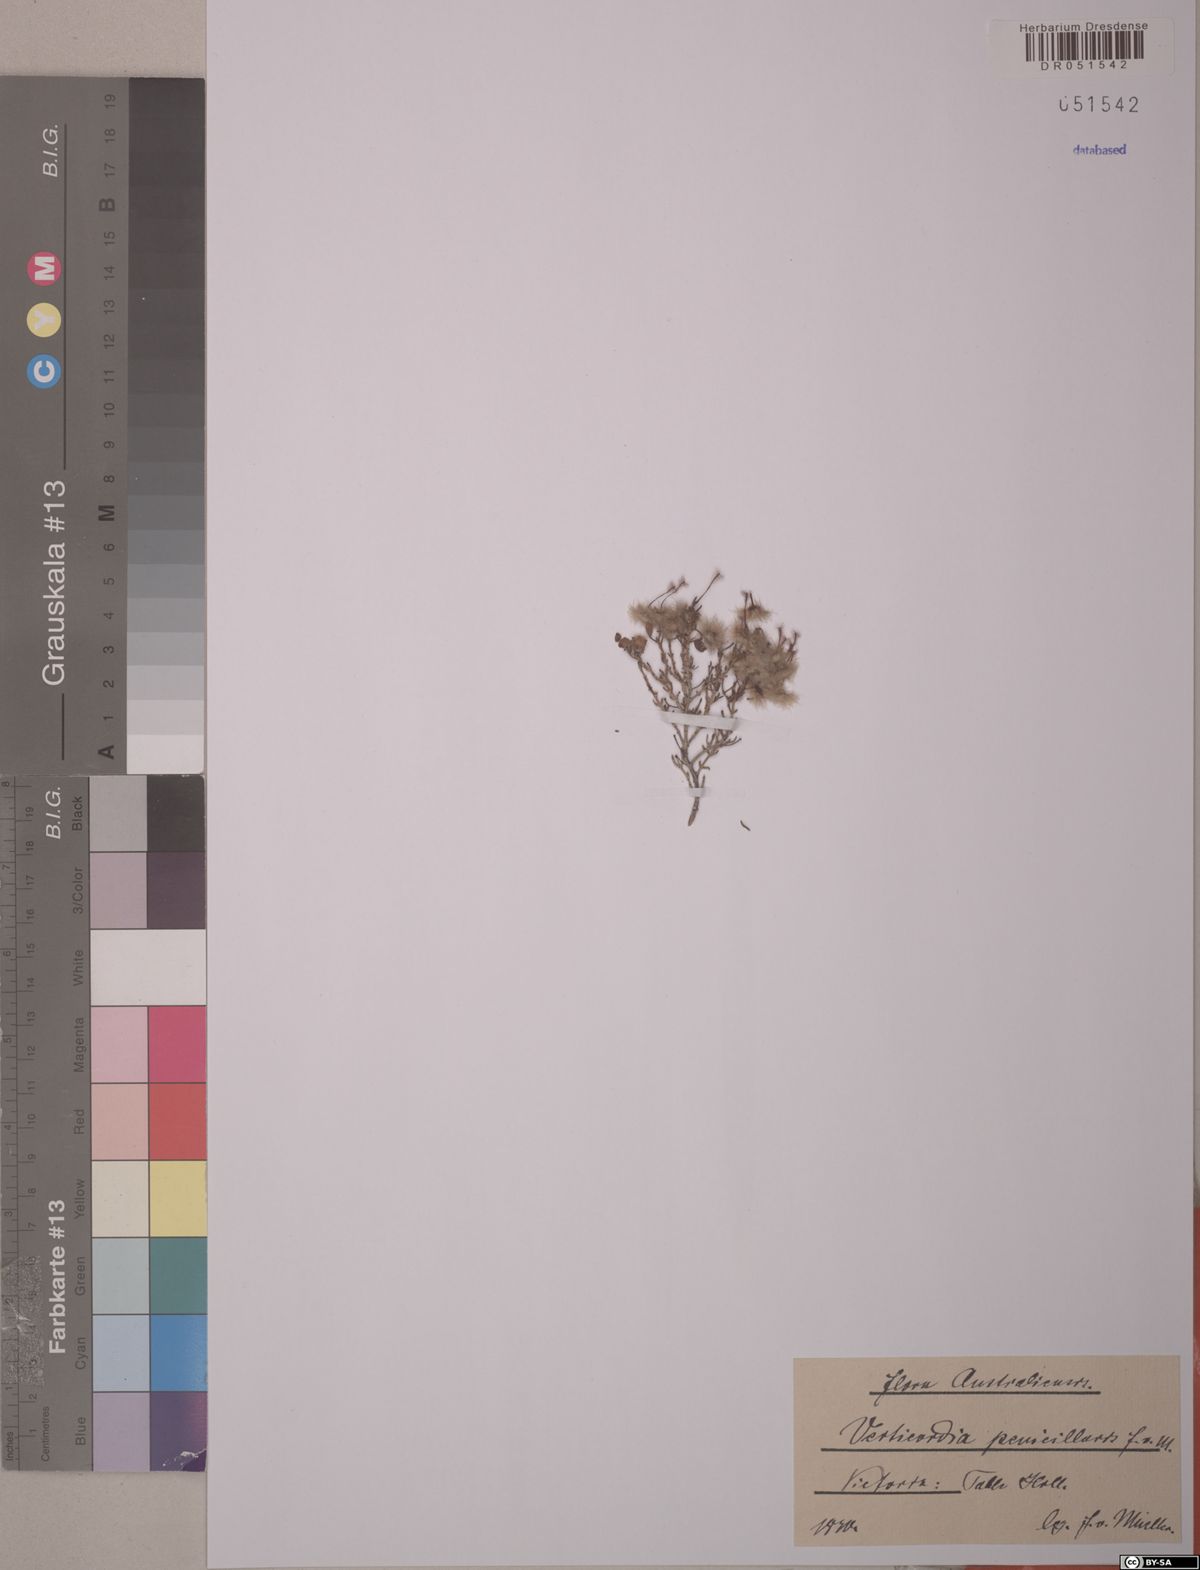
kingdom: Plantae
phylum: Tracheophyta
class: Magnoliopsida
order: Myrtales
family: Myrtaceae
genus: Verticordia
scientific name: Verticordia penicillaris
